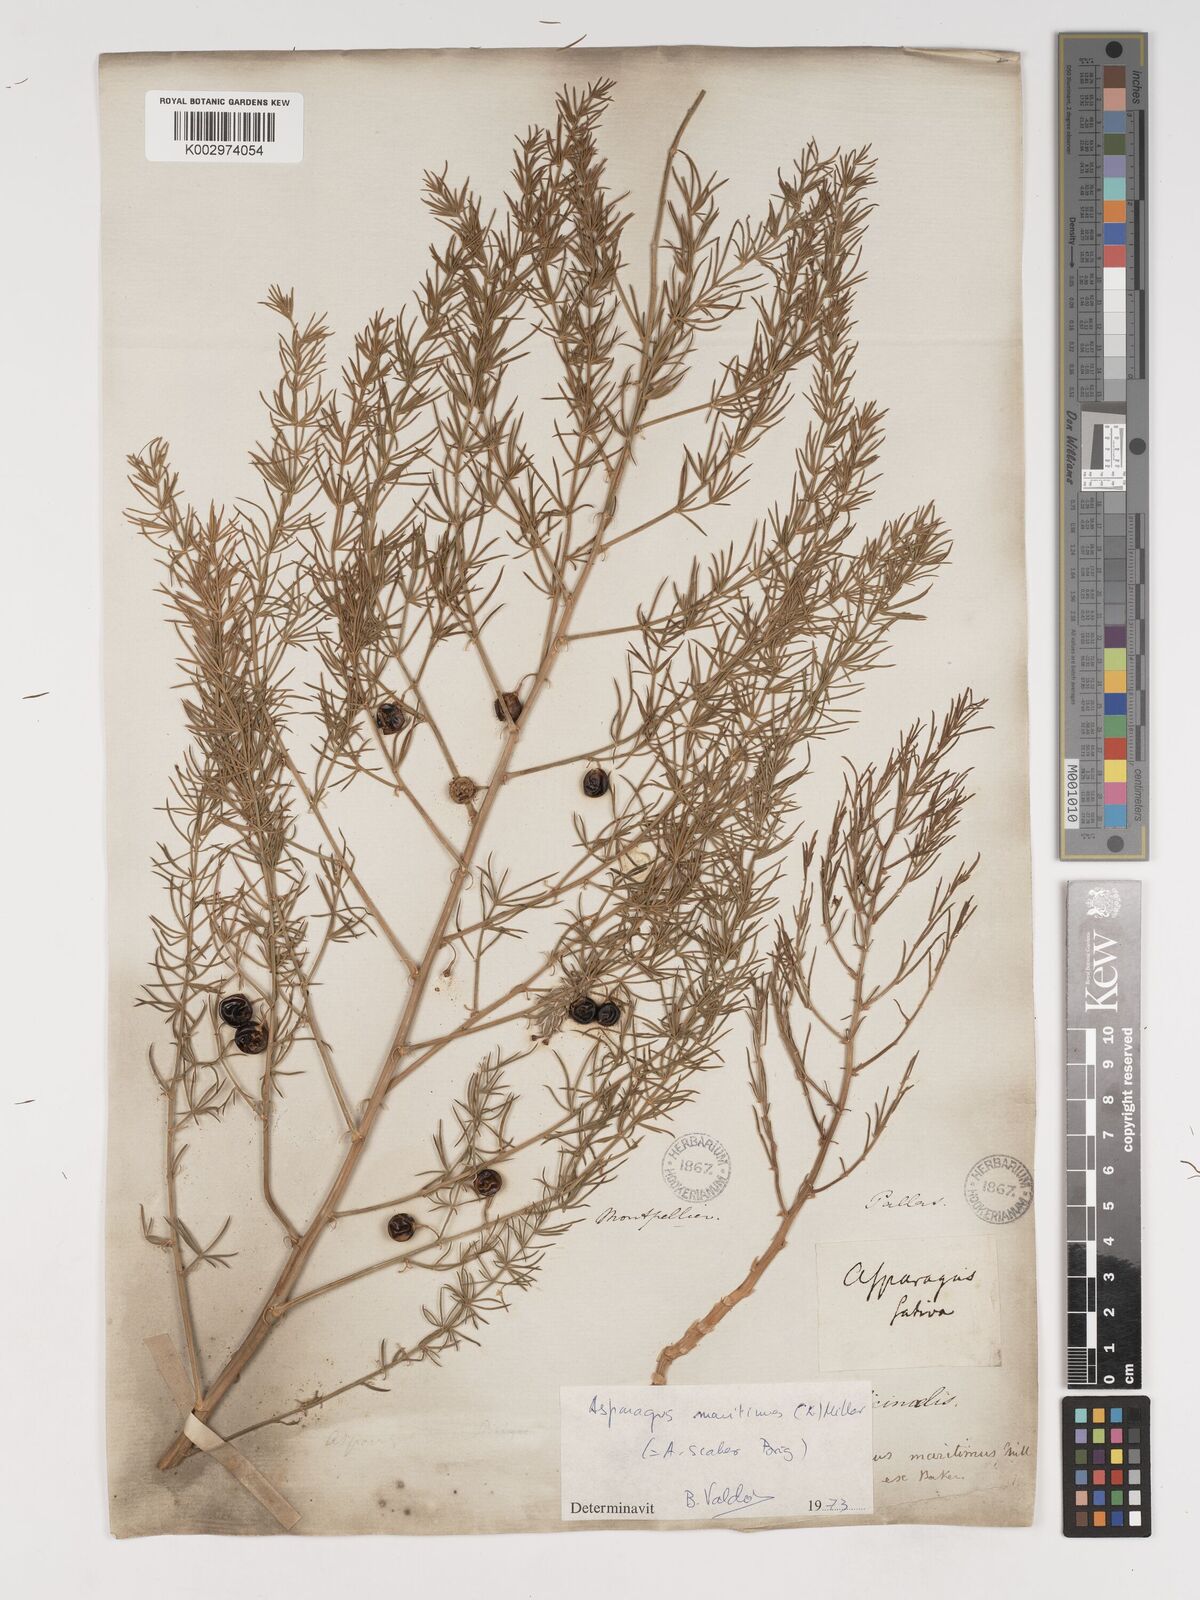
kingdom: Plantae
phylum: Tracheophyta
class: Liliopsida
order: Asparagales
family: Asparagaceae
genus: Asparagus
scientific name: Asparagus maritimus
